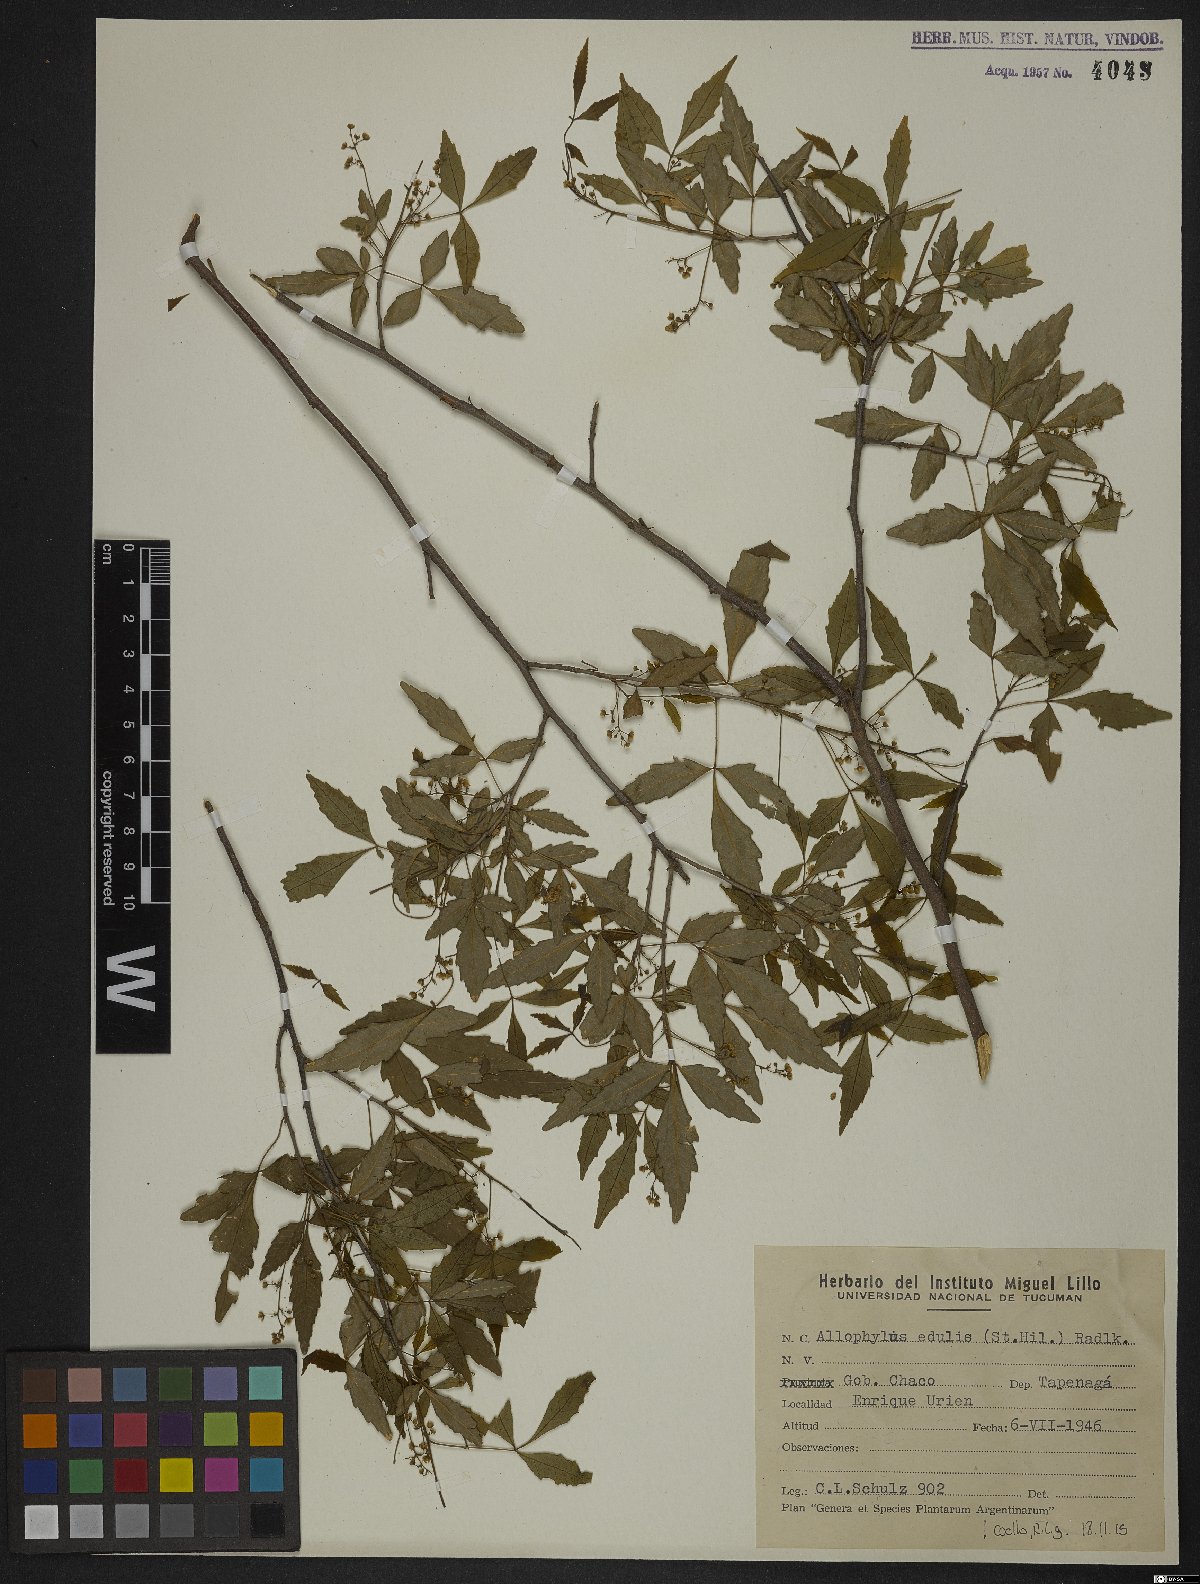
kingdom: Plantae
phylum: Tracheophyta
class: Magnoliopsida
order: Sapindales
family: Sapindaceae
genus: Allophylus
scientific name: Allophylus edulis
